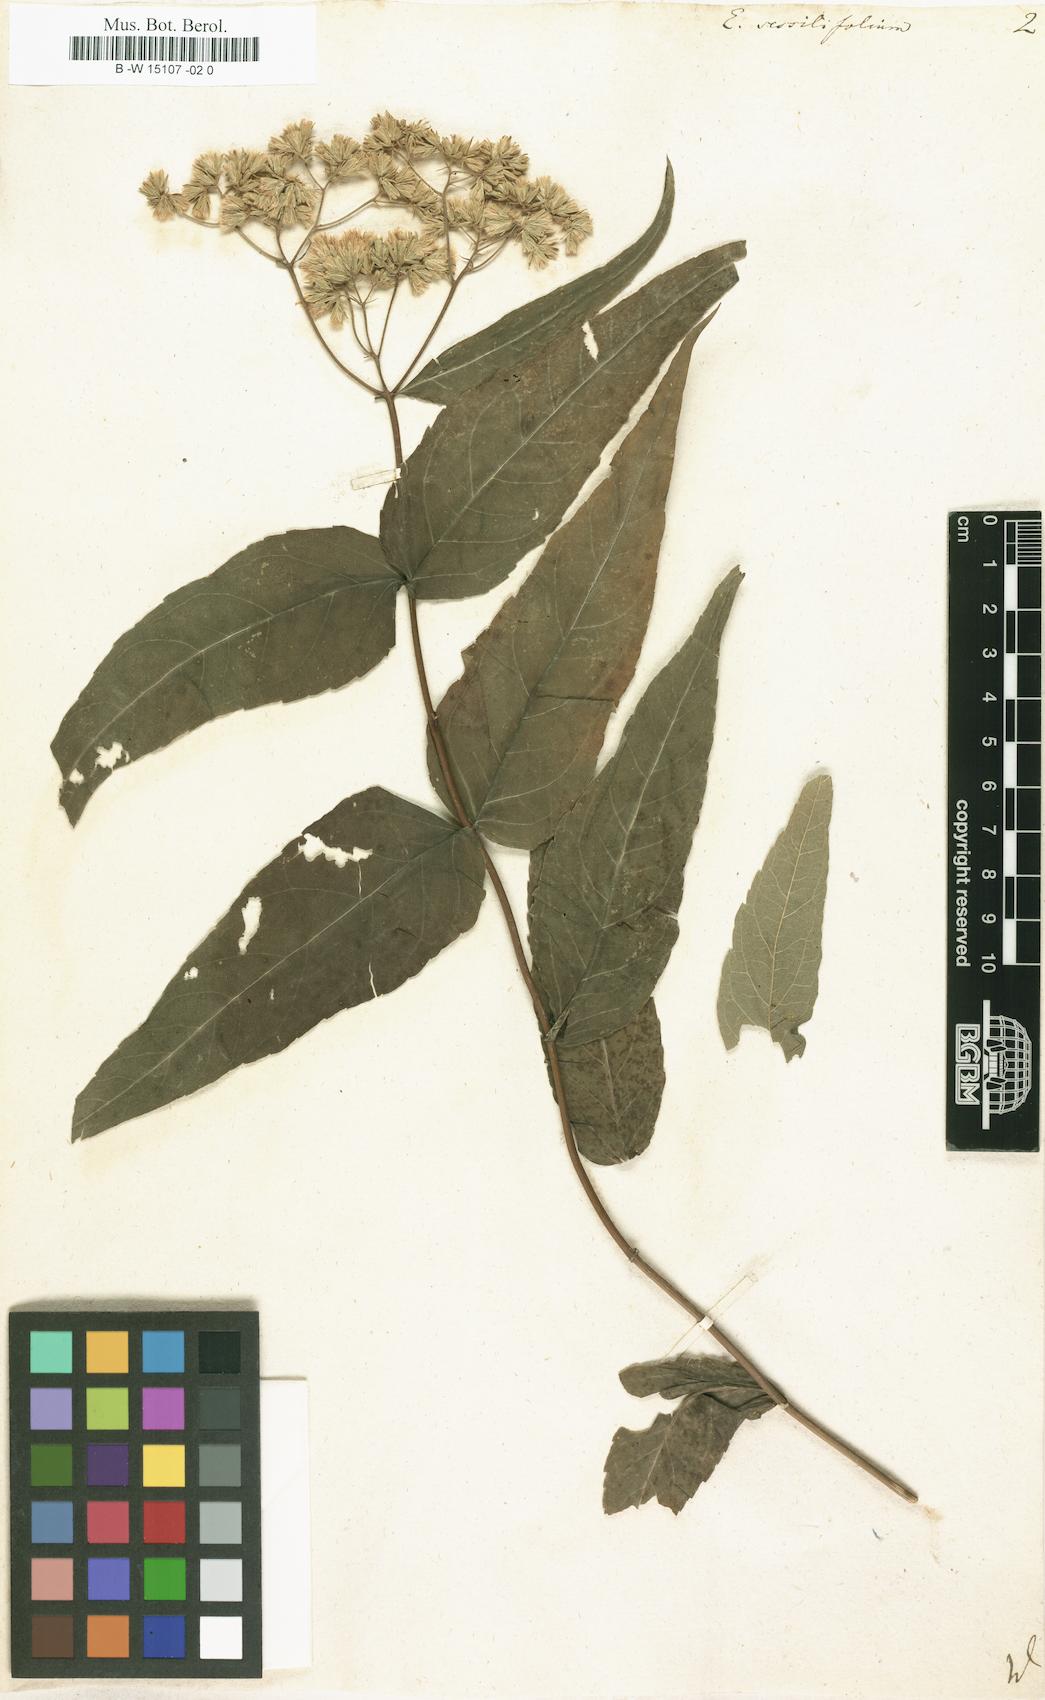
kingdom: Plantae
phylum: Tracheophyta
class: Magnoliopsida
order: Asterales
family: Asteraceae
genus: Eupatorium
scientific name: Eupatorium sessilifolium
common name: Upland boneset
